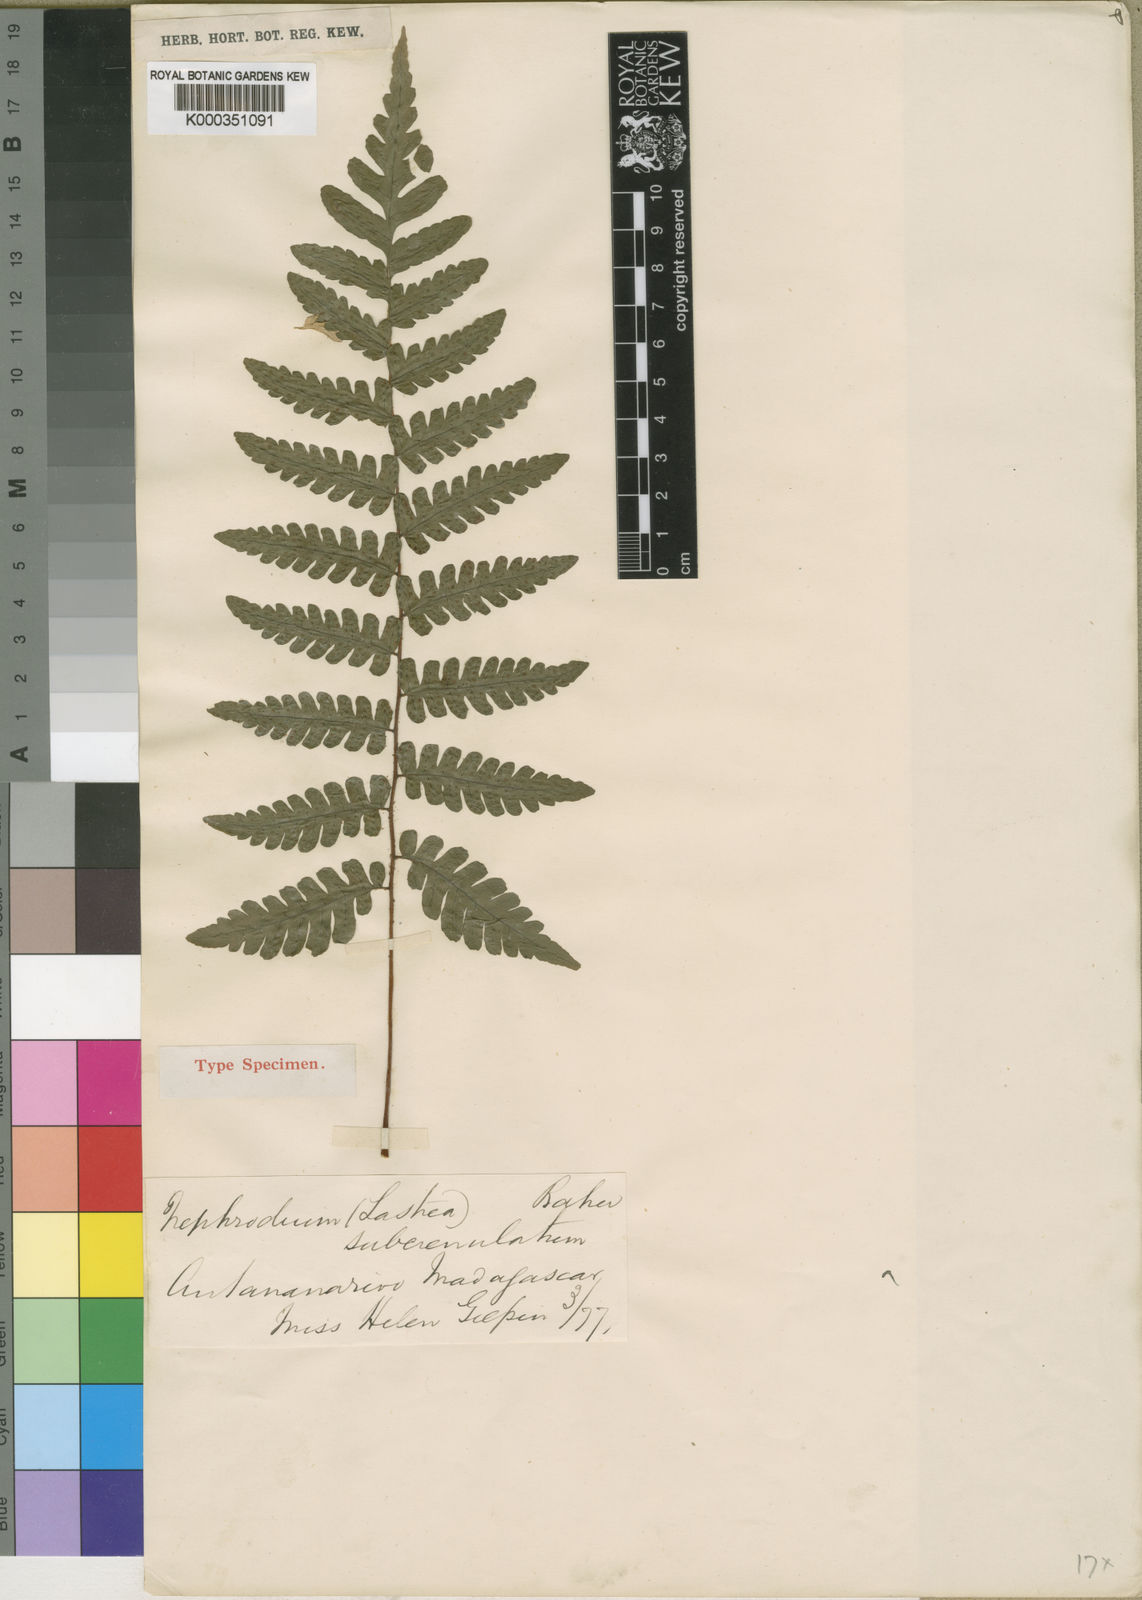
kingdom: Plantae
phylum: Tracheophyta
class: Polypodiopsida
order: Polypodiales
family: Dryopteridaceae
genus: Ctenitis
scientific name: Ctenitis subcrenulata
